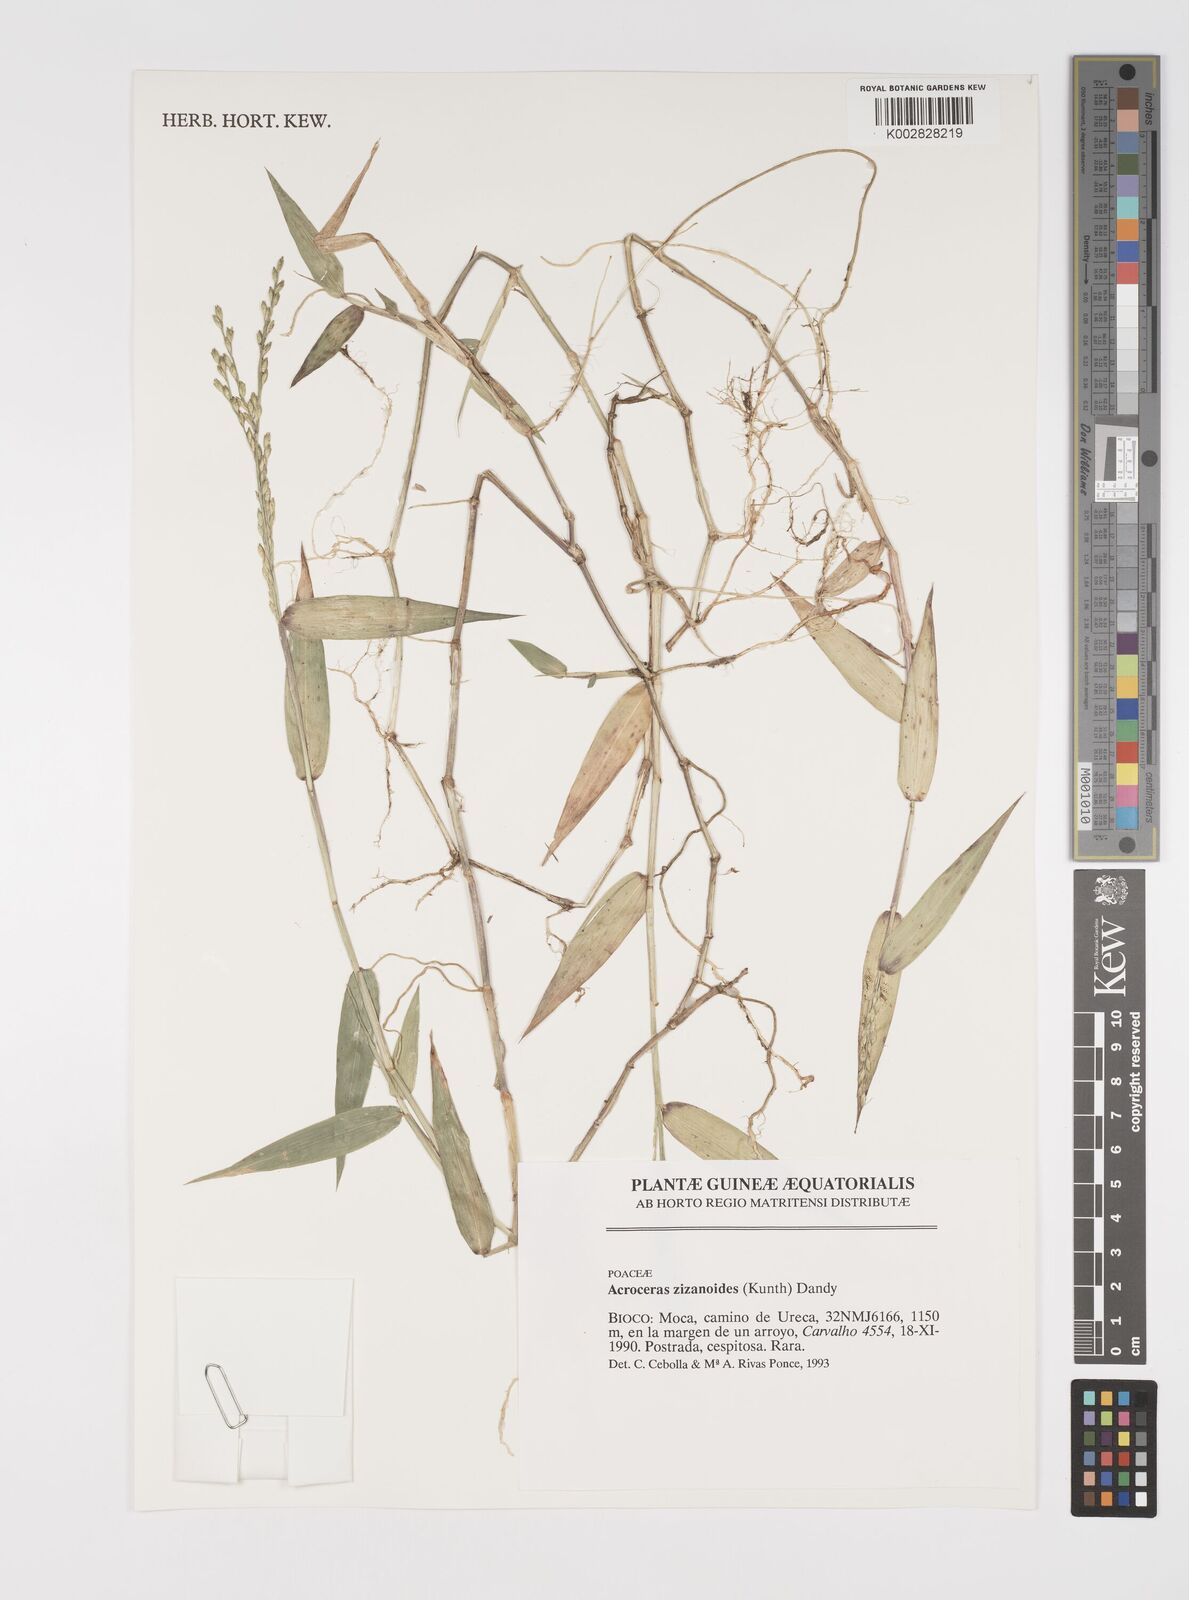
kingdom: Plantae
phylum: Tracheophyta
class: Liliopsida
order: Poales
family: Poaceae
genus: Acroceras
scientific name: Acroceras zizanioides
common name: Oat grass
